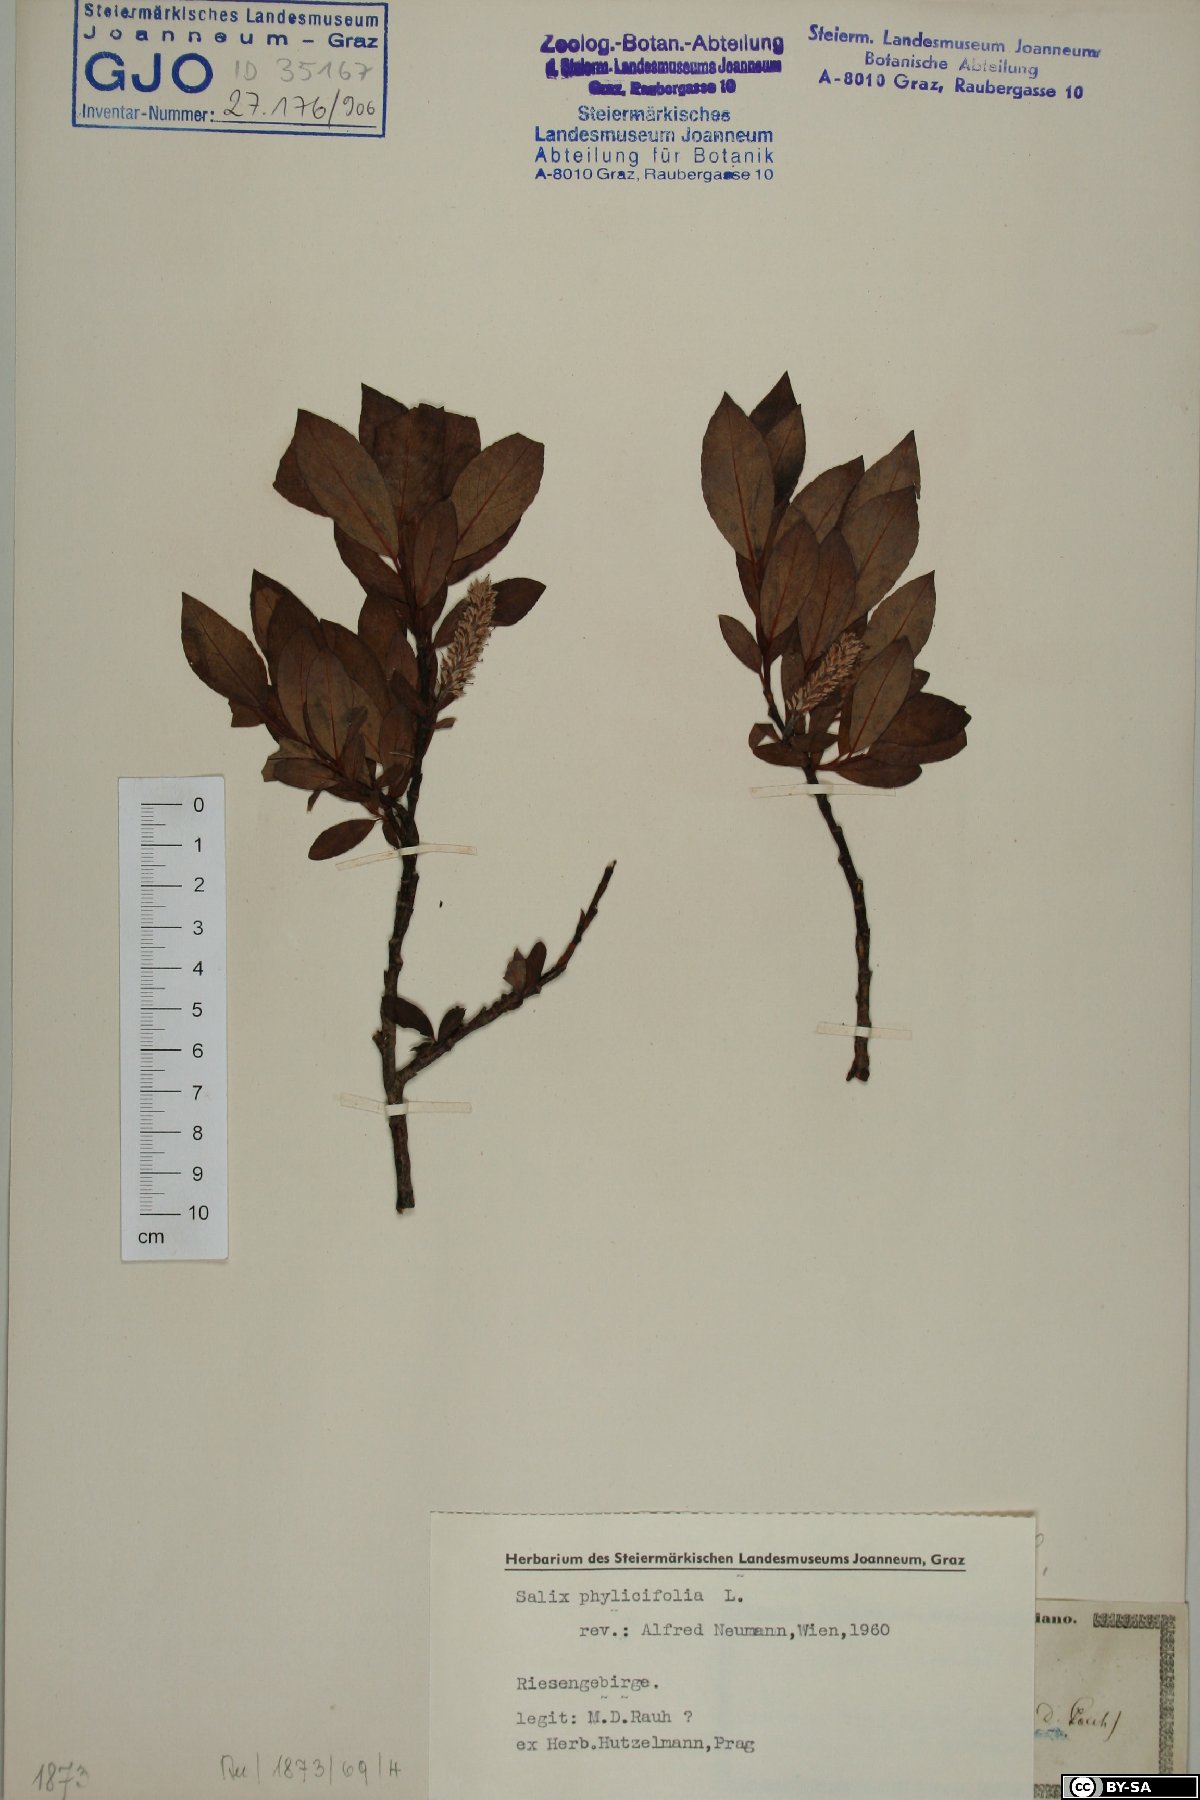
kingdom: Plantae
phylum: Tracheophyta
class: Magnoliopsida
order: Malpighiales
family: Salicaceae
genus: Salix
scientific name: Salix phylicifolia
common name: Tea-leaved willow
